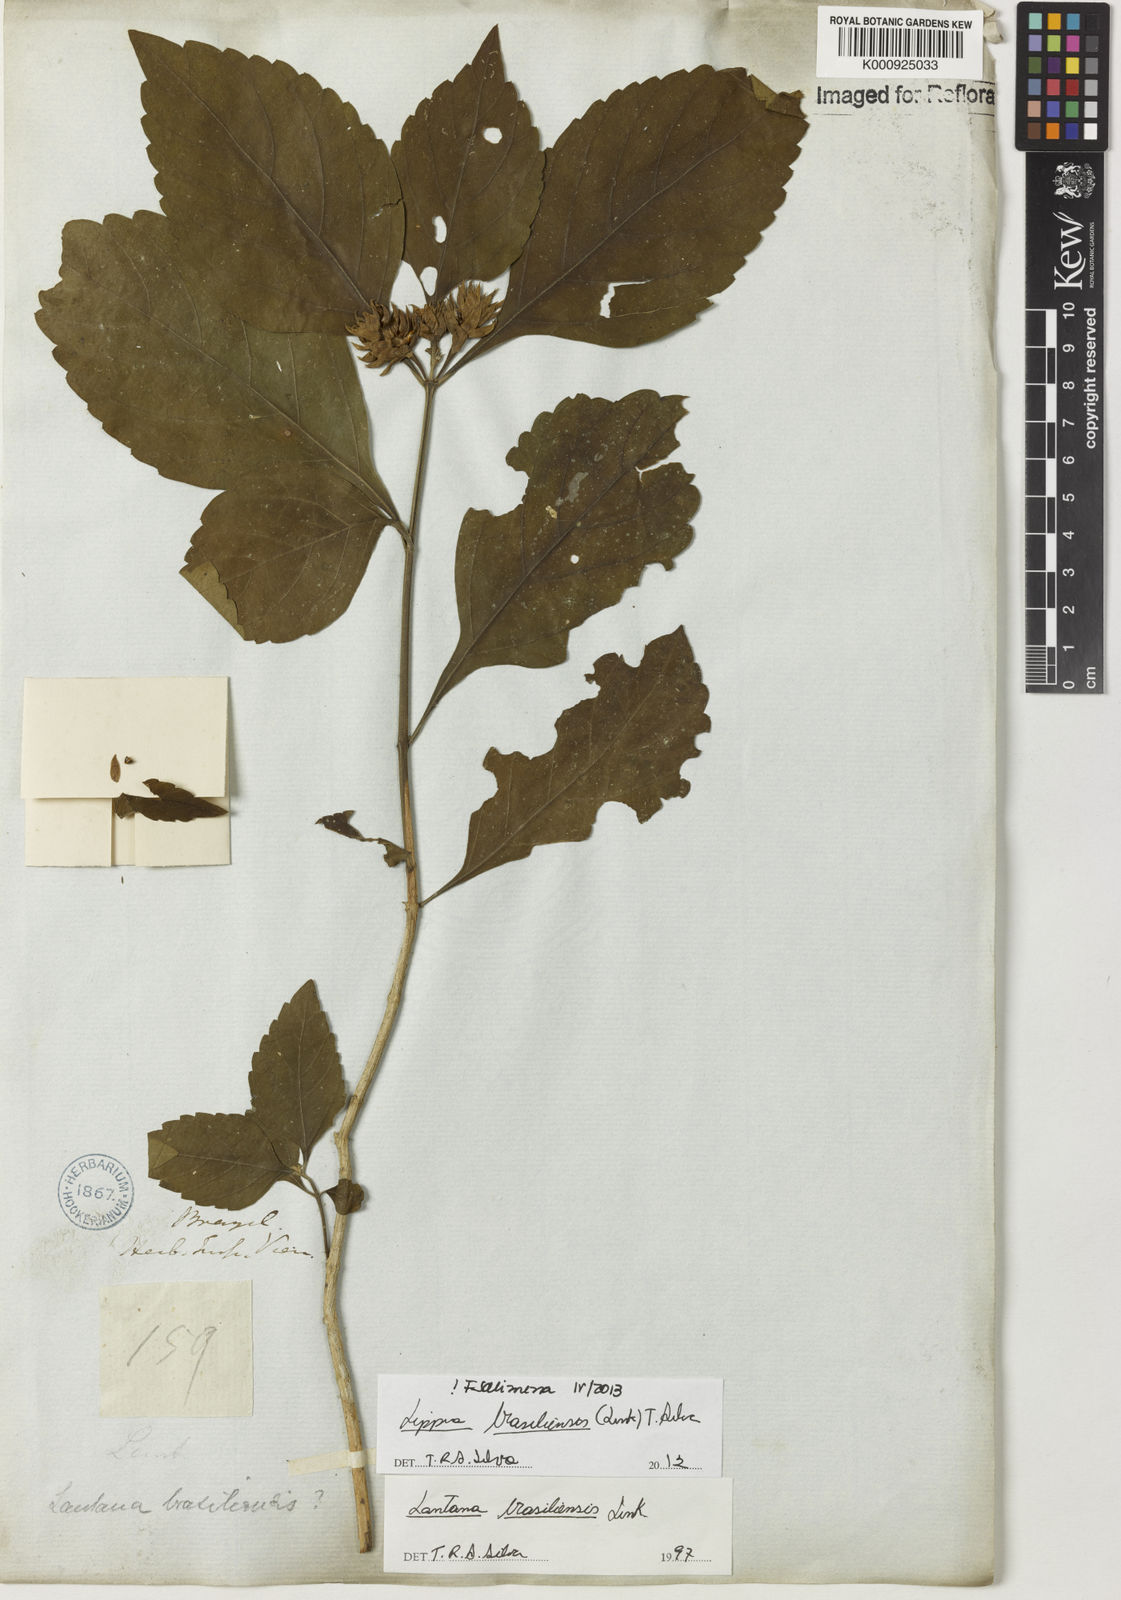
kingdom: Plantae
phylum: Tracheophyta
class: Magnoliopsida
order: Lamiales
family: Verbenaceae
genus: Lippia
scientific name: Lippia brasiliensis
